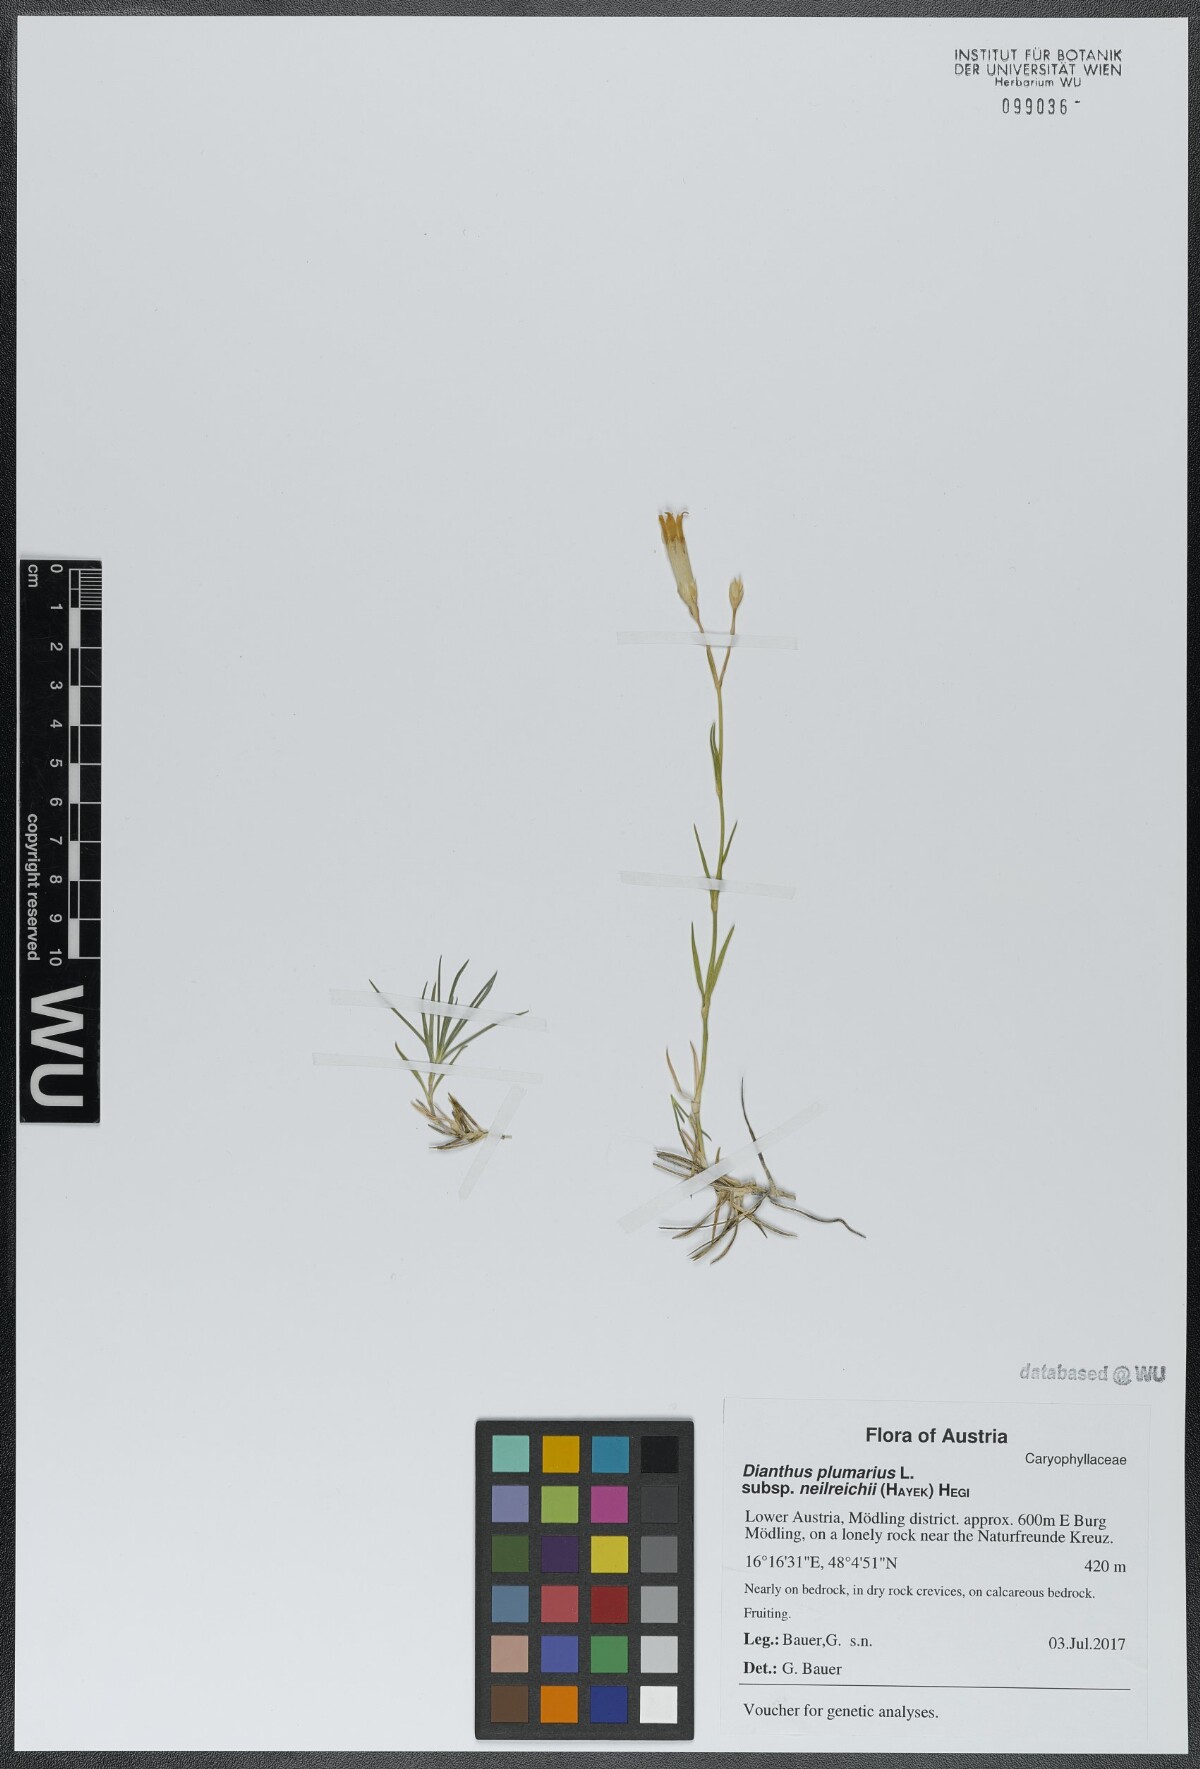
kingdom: Plantae
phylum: Tracheophyta
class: Magnoliopsida
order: Caryophyllales
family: Caryophyllaceae
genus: Dianthus
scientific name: Dianthus plumarius
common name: Pink
